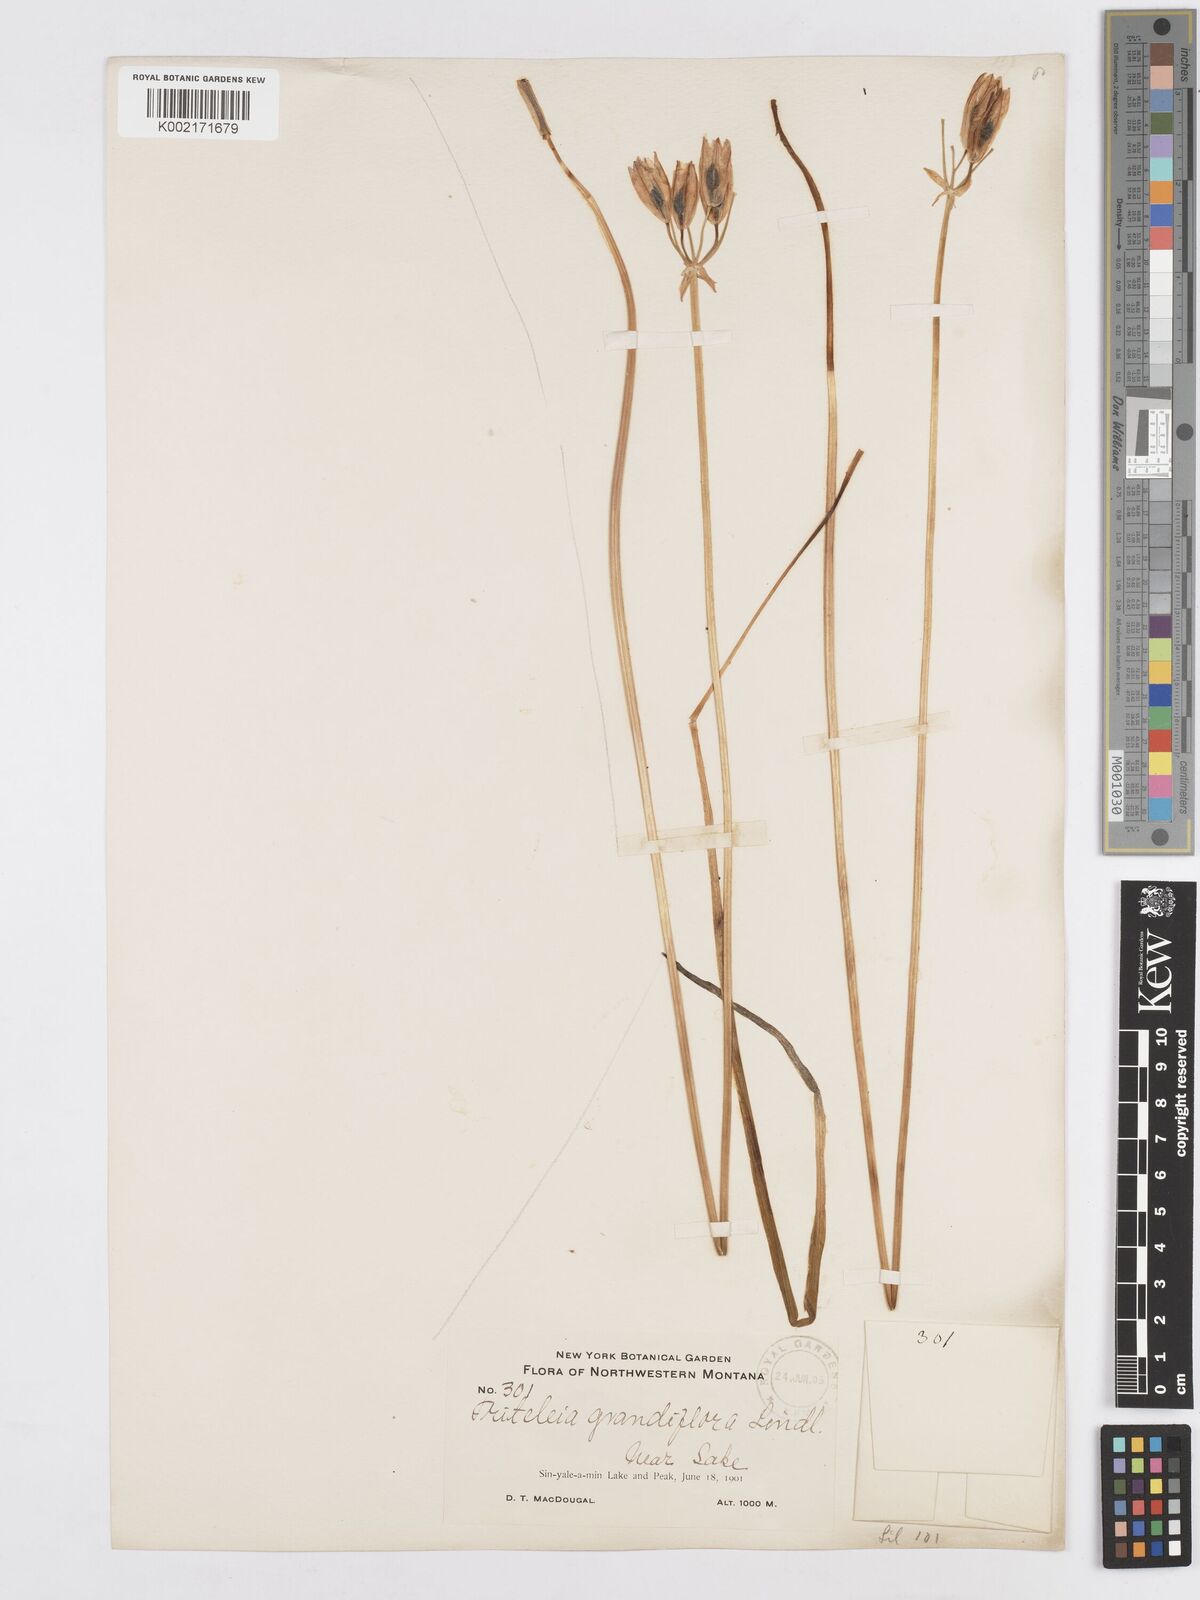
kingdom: Plantae
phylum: Tracheophyta
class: Liliopsida
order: Asparagales
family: Asparagaceae
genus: Triteleia
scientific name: Triteleia grandiflora
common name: Wild hyacinth
